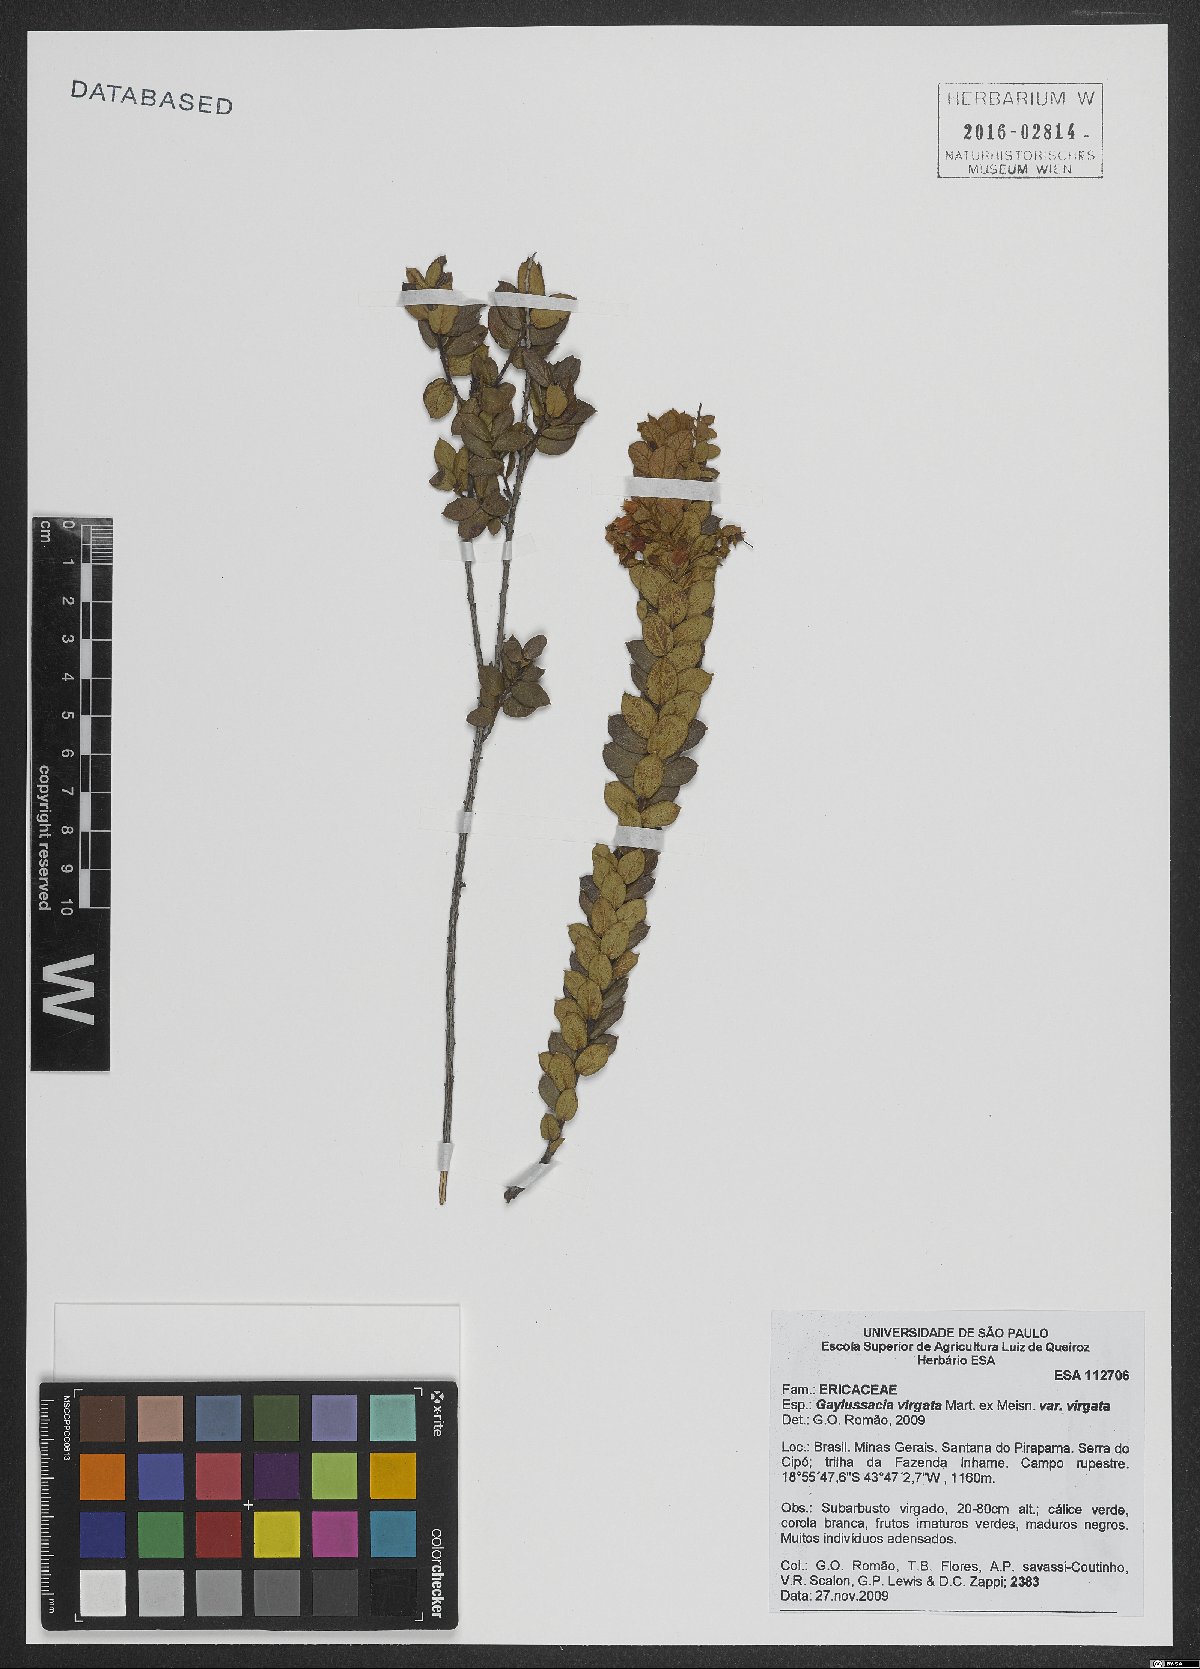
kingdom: Plantae
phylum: Tracheophyta
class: Magnoliopsida
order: Ericales
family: Ericaceae
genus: Gaylussacia
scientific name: Gaylussacia virgata
